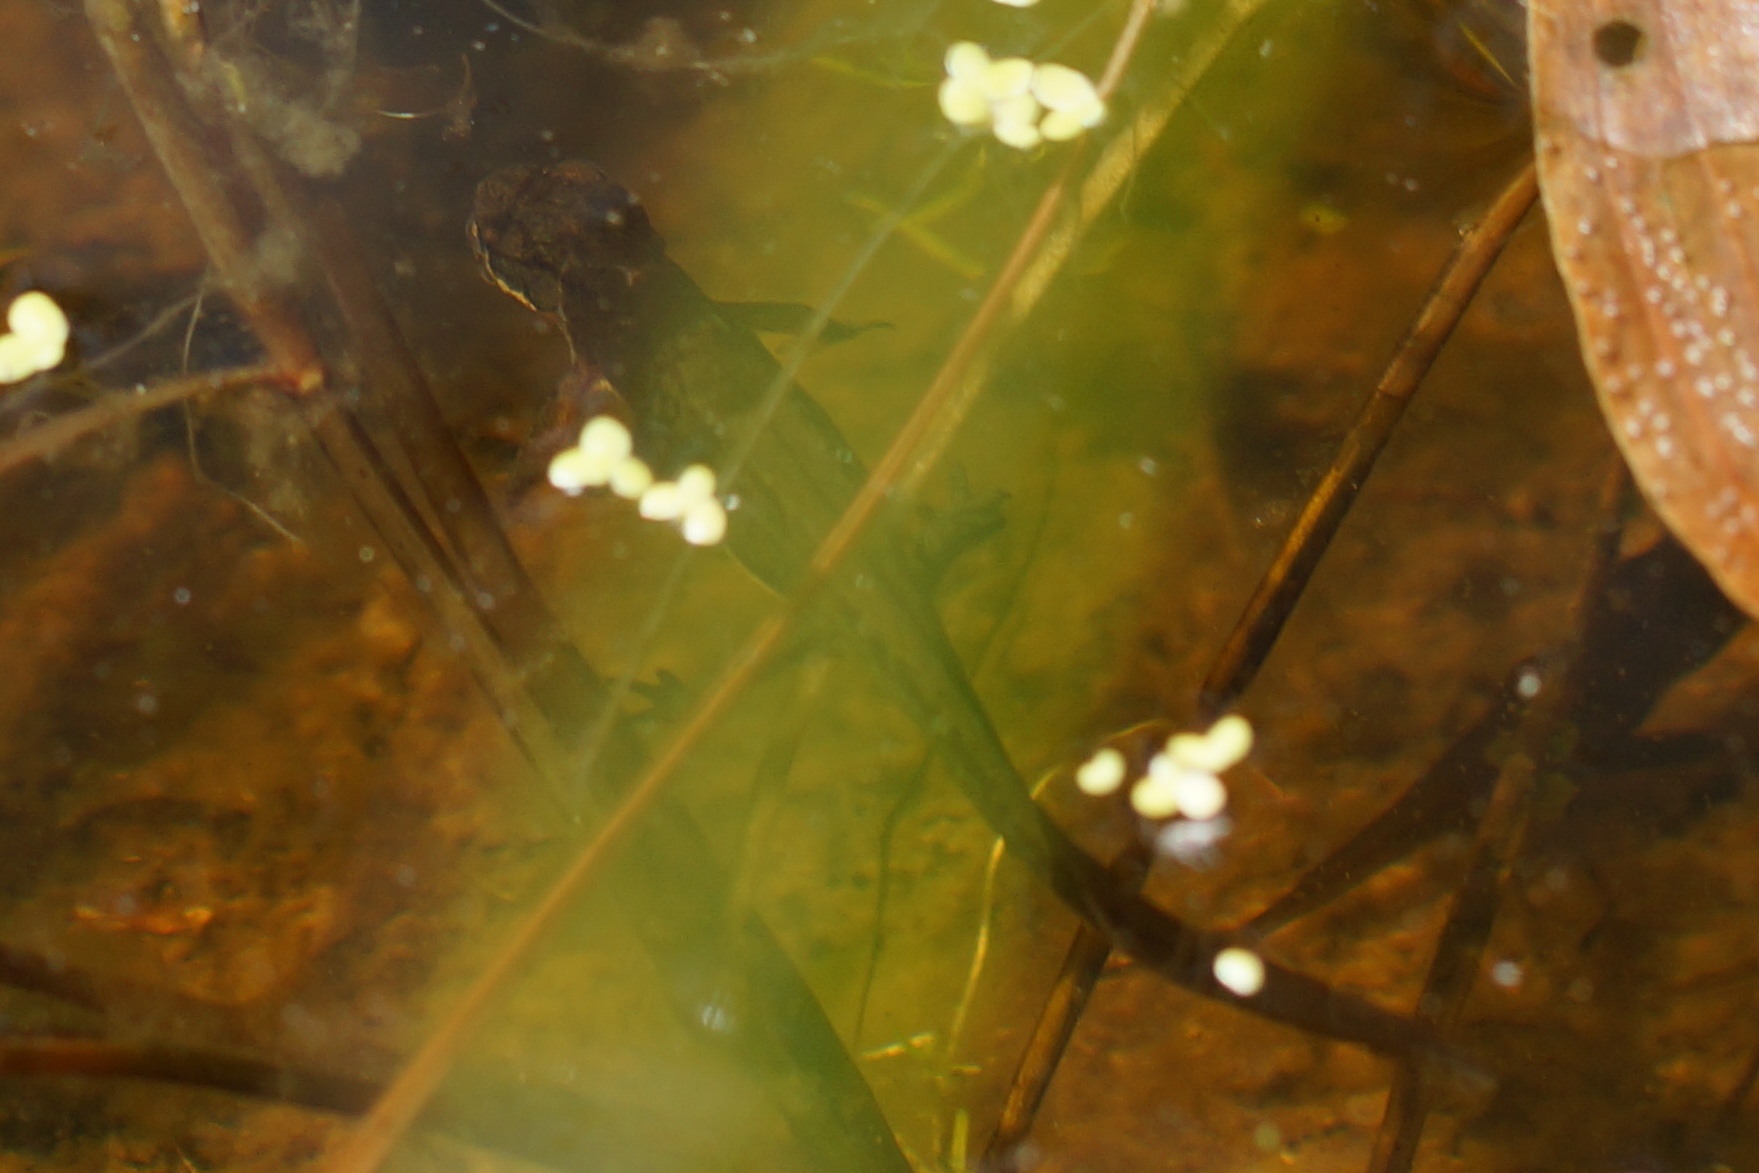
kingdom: Animalia
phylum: Chordata
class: Amphibia
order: Caudata
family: Salamandridae
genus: Lissotriton
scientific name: Lissotriton vulgaris
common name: Lille vandsalamander
